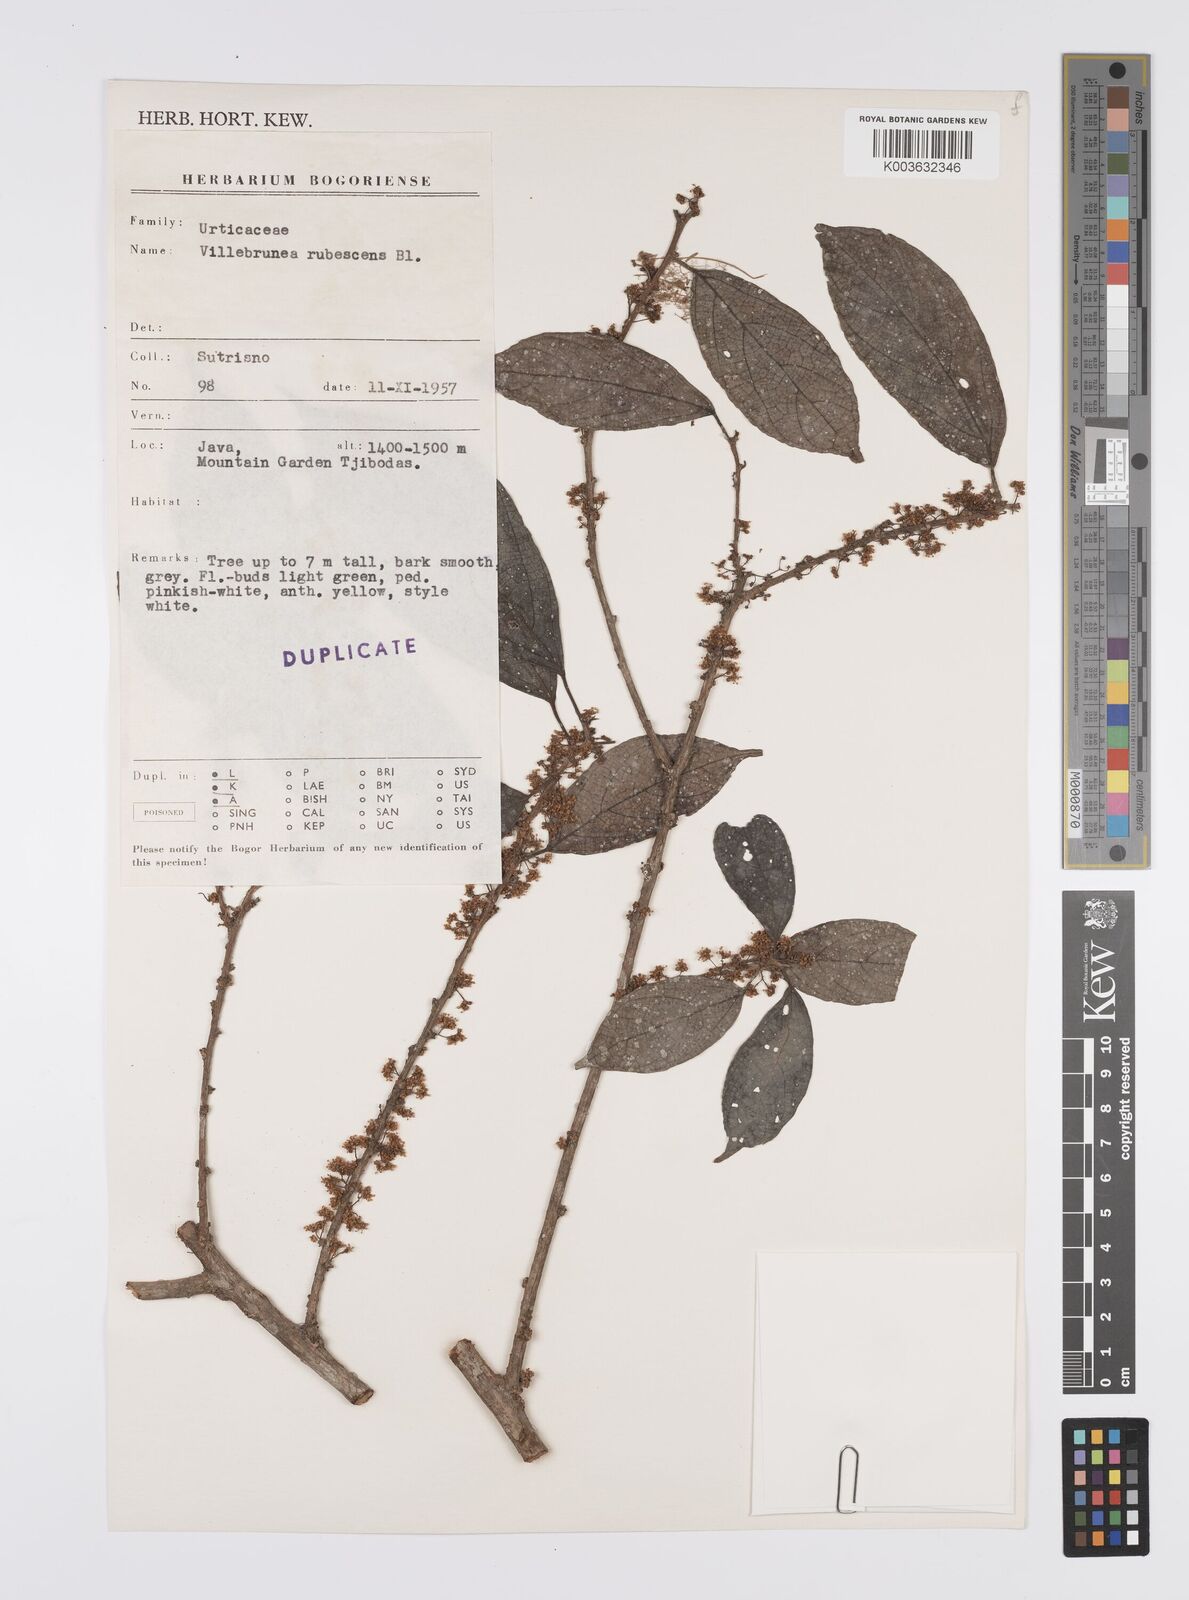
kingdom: Plantae
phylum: Tracheophyta
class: Magnoliopsida
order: Rosales
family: Urticaceae
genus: Oreocnide
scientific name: Oreocnide rubescens
